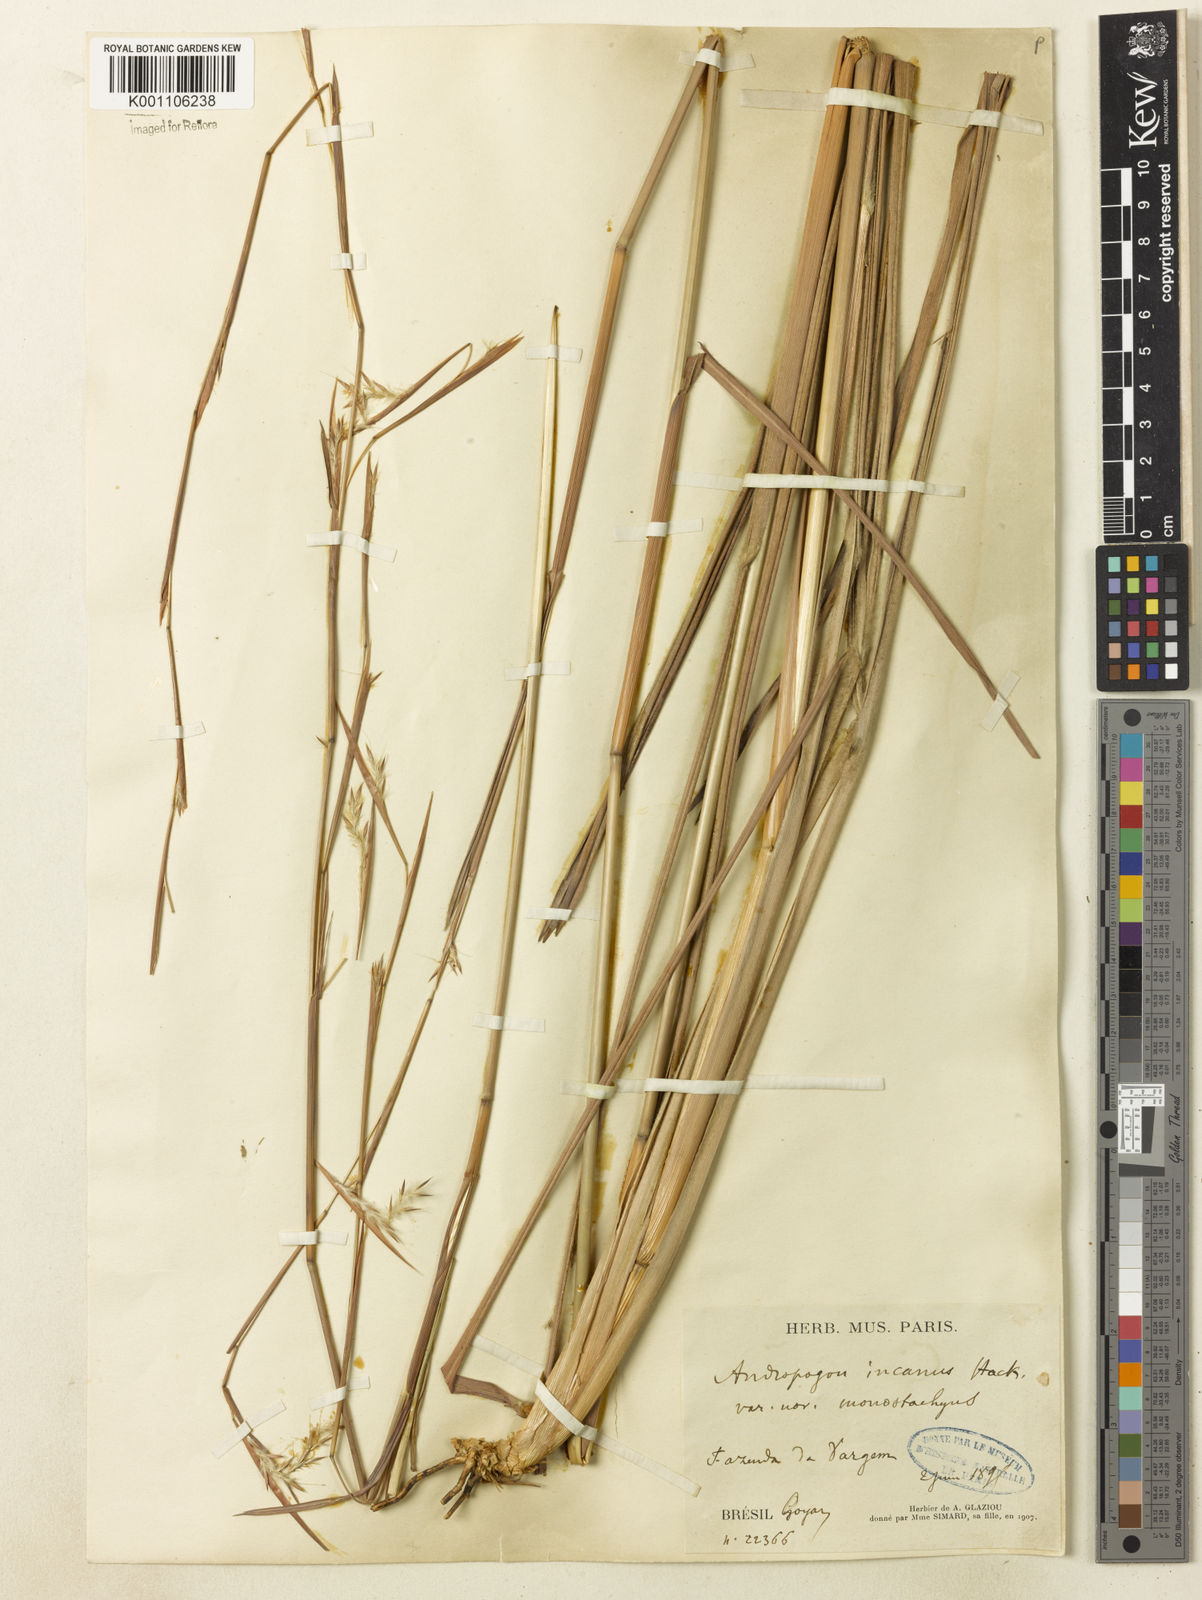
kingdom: Plantae
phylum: Tracheophyta
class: Liliopsida
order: Poales
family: Poaceae
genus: Andropogon
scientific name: Andropogon
